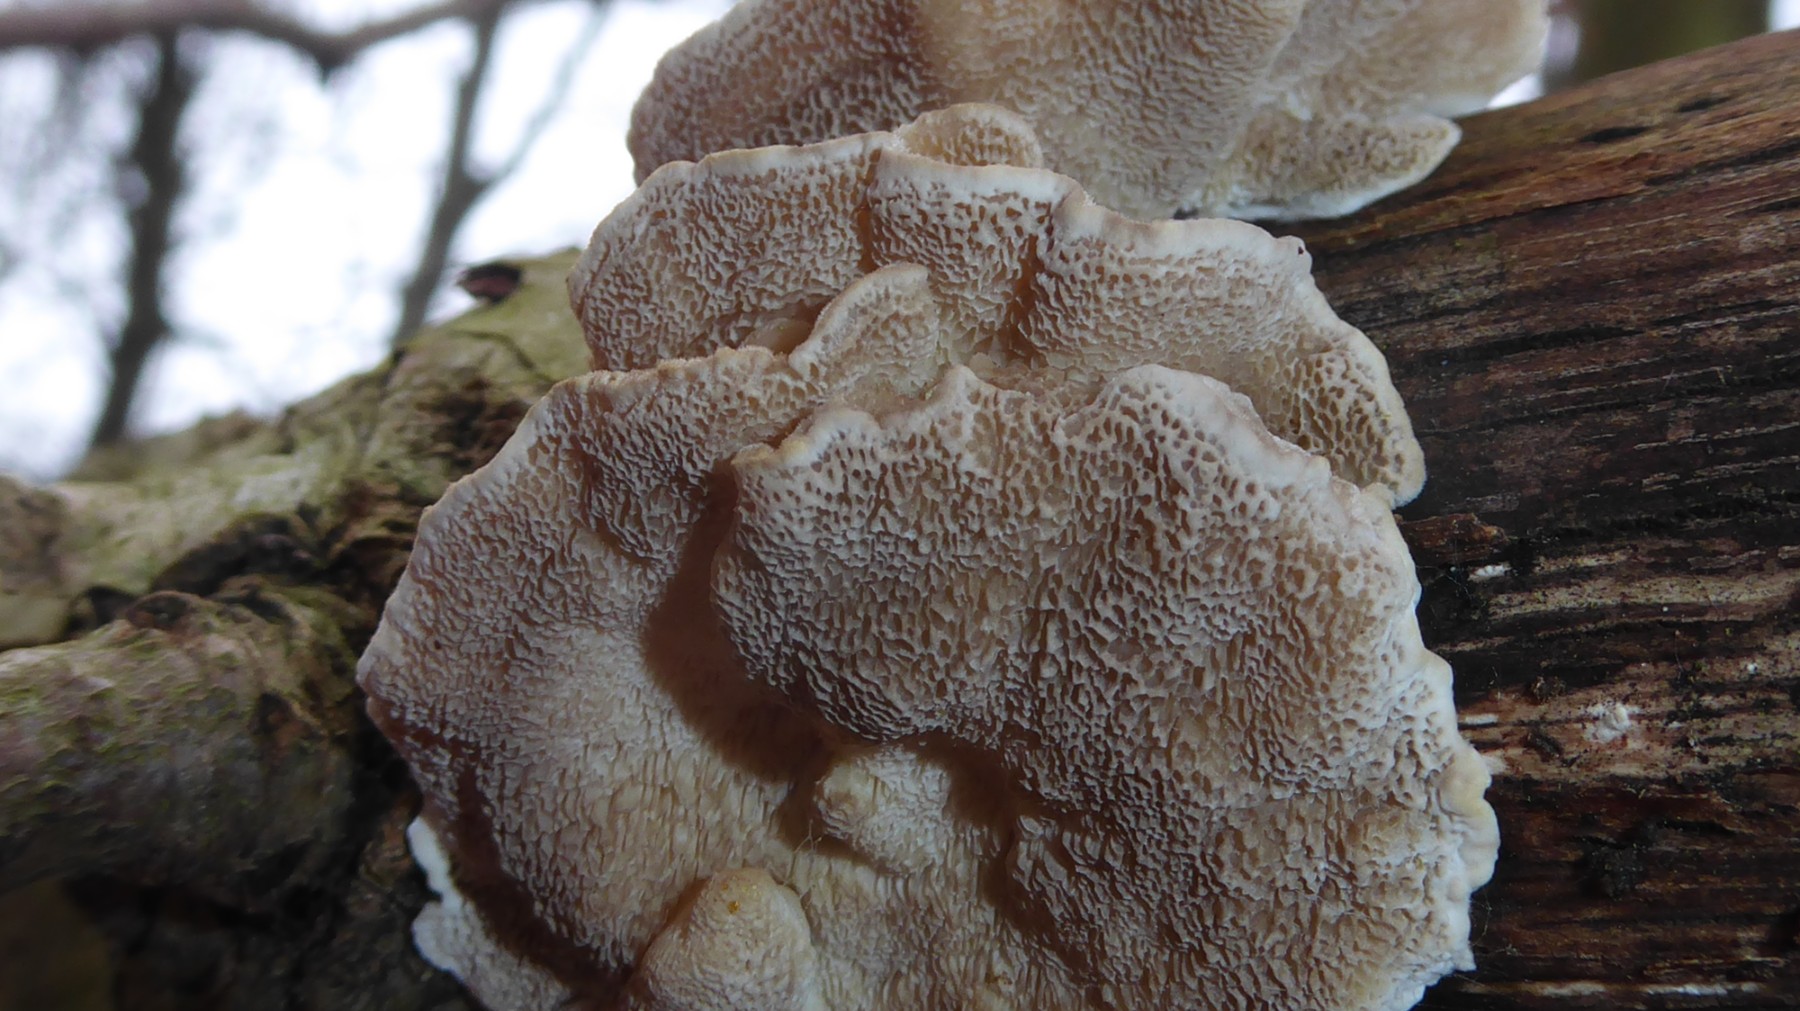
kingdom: Fungi
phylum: Basidiomycota
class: Agaricomycetes
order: Polyporales
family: Polyporaceae
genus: Trametes
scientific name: Trametes ochracea
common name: bæltet læderporesvamp
